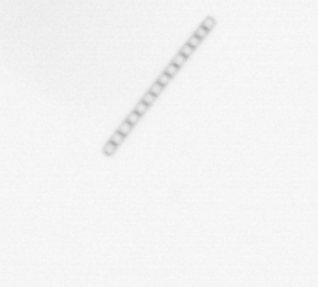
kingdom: Chromista
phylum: Ochrophyta
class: Bacillariophyceae
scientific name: Bacillariophyceae
